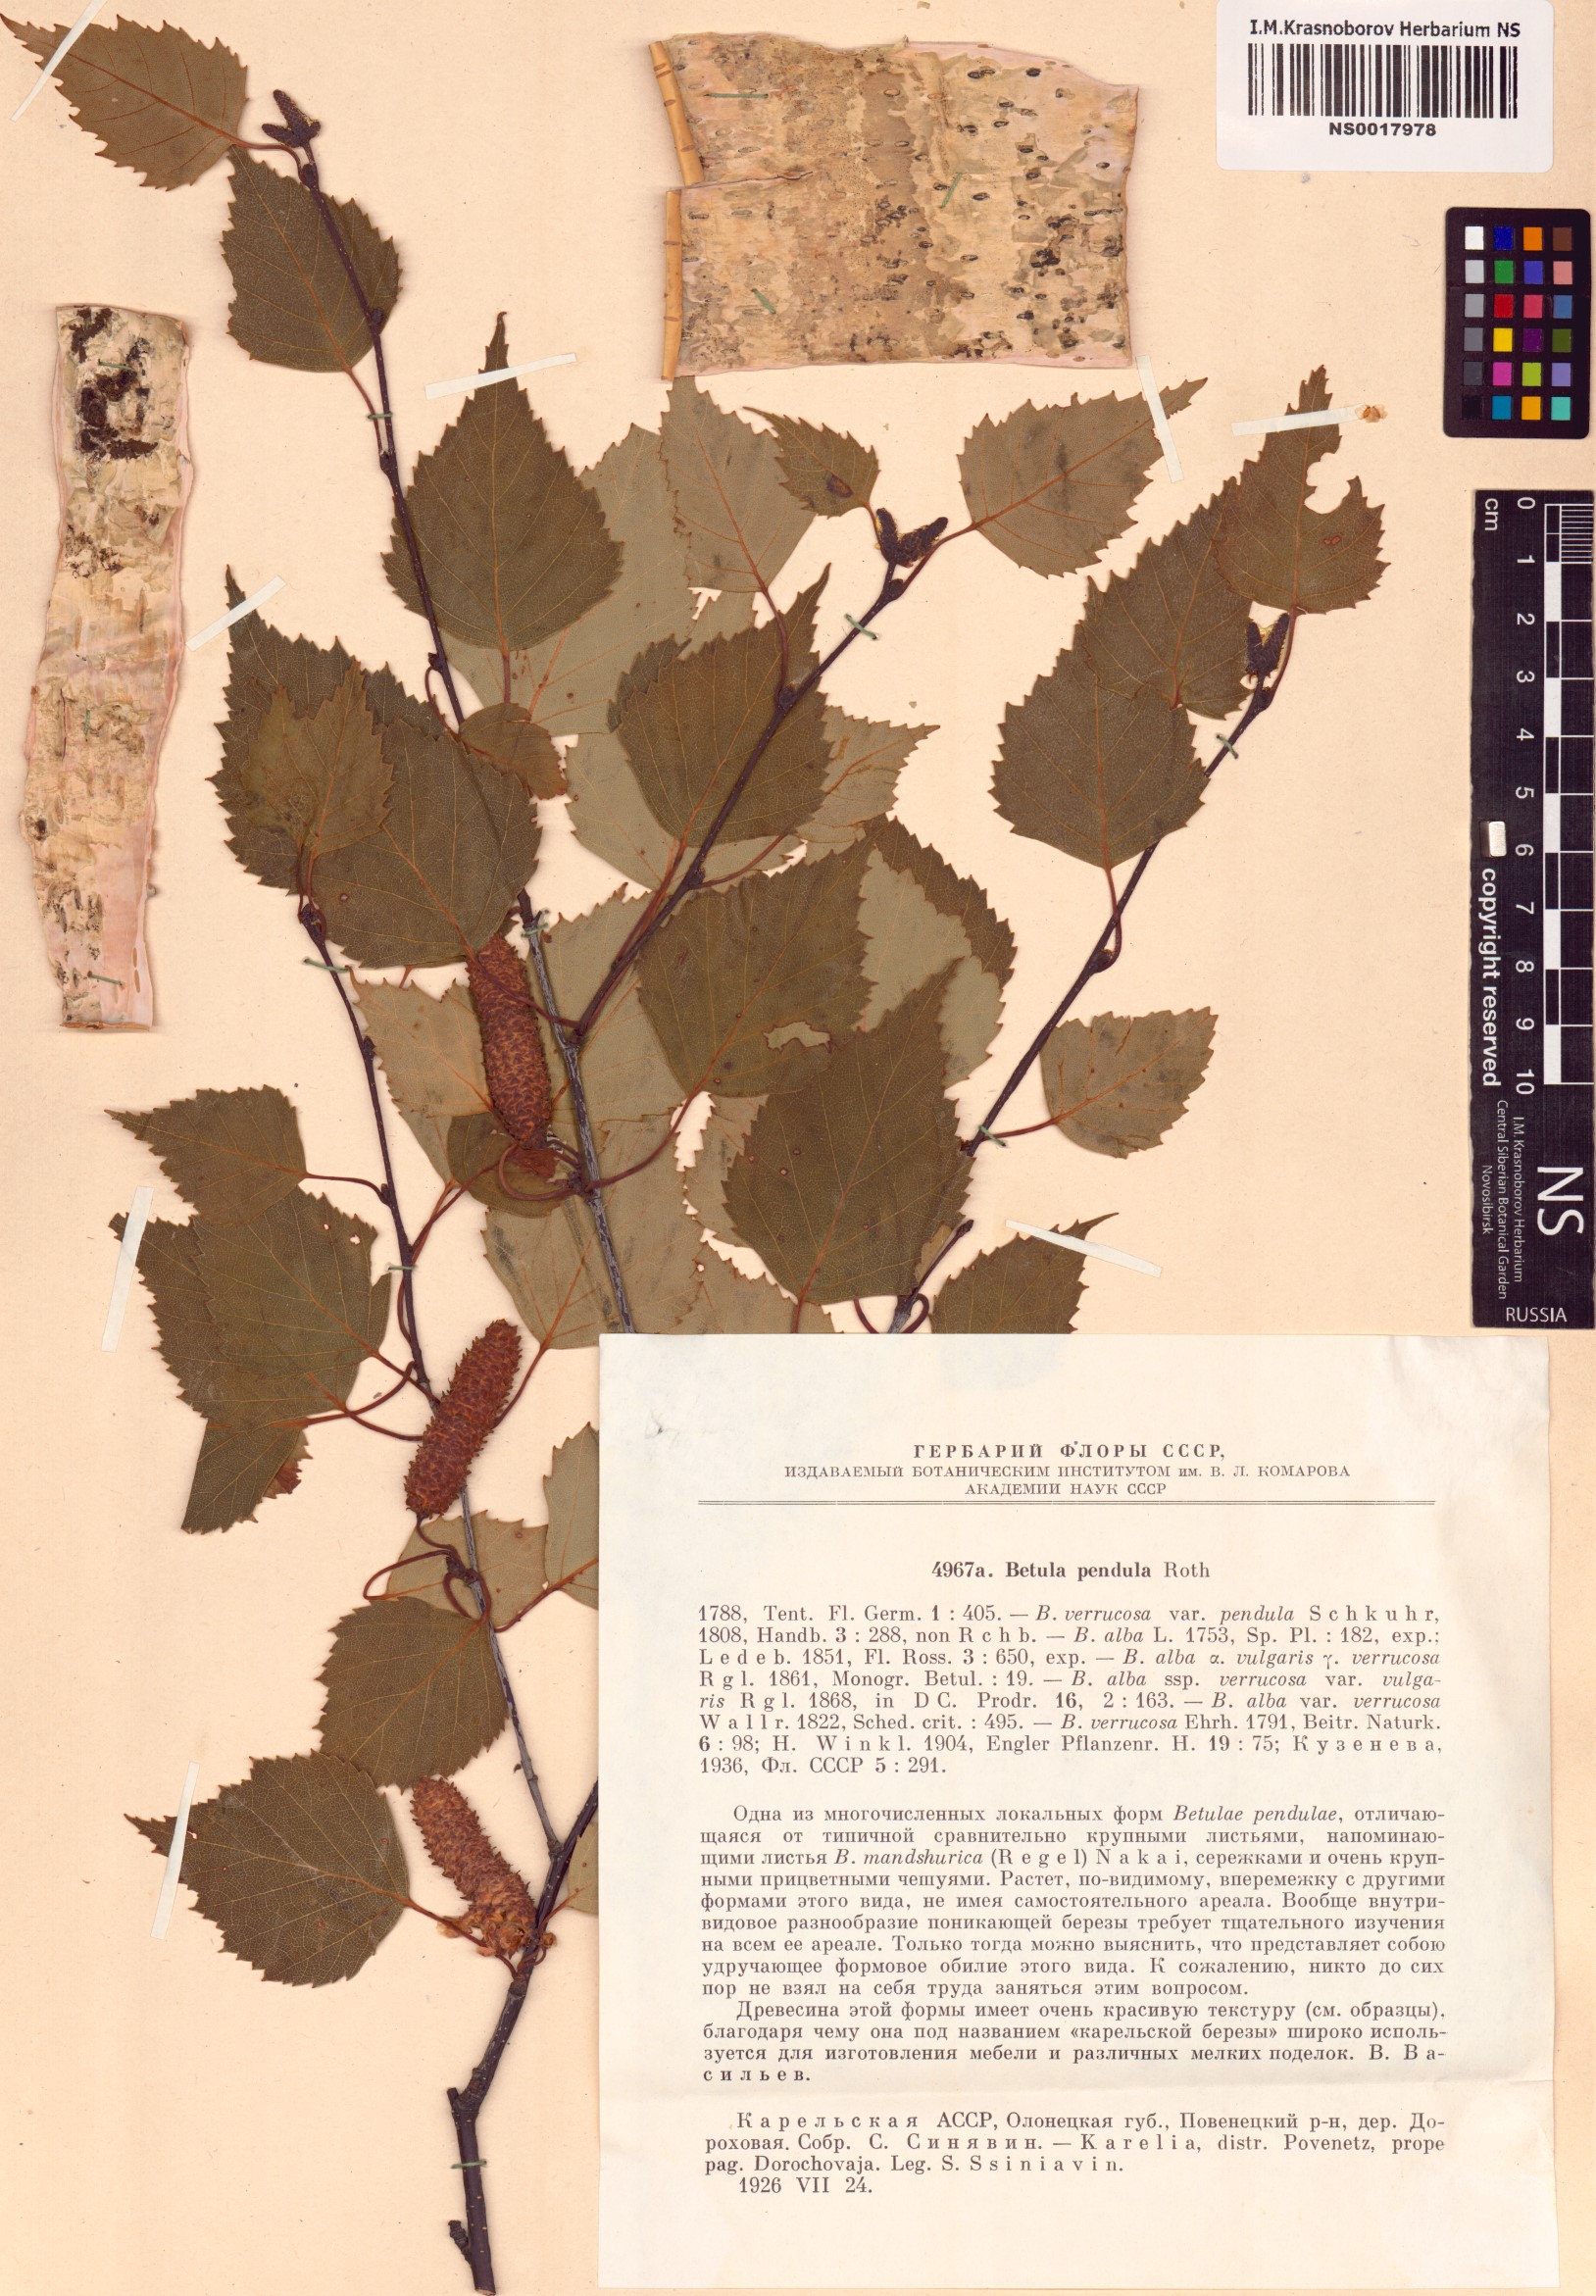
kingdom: Plantae
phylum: Tracheophyta
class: Magnoliopsida
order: Fagales
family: Betulaceae
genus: Betula
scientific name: Betula pendula
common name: Silver birch
